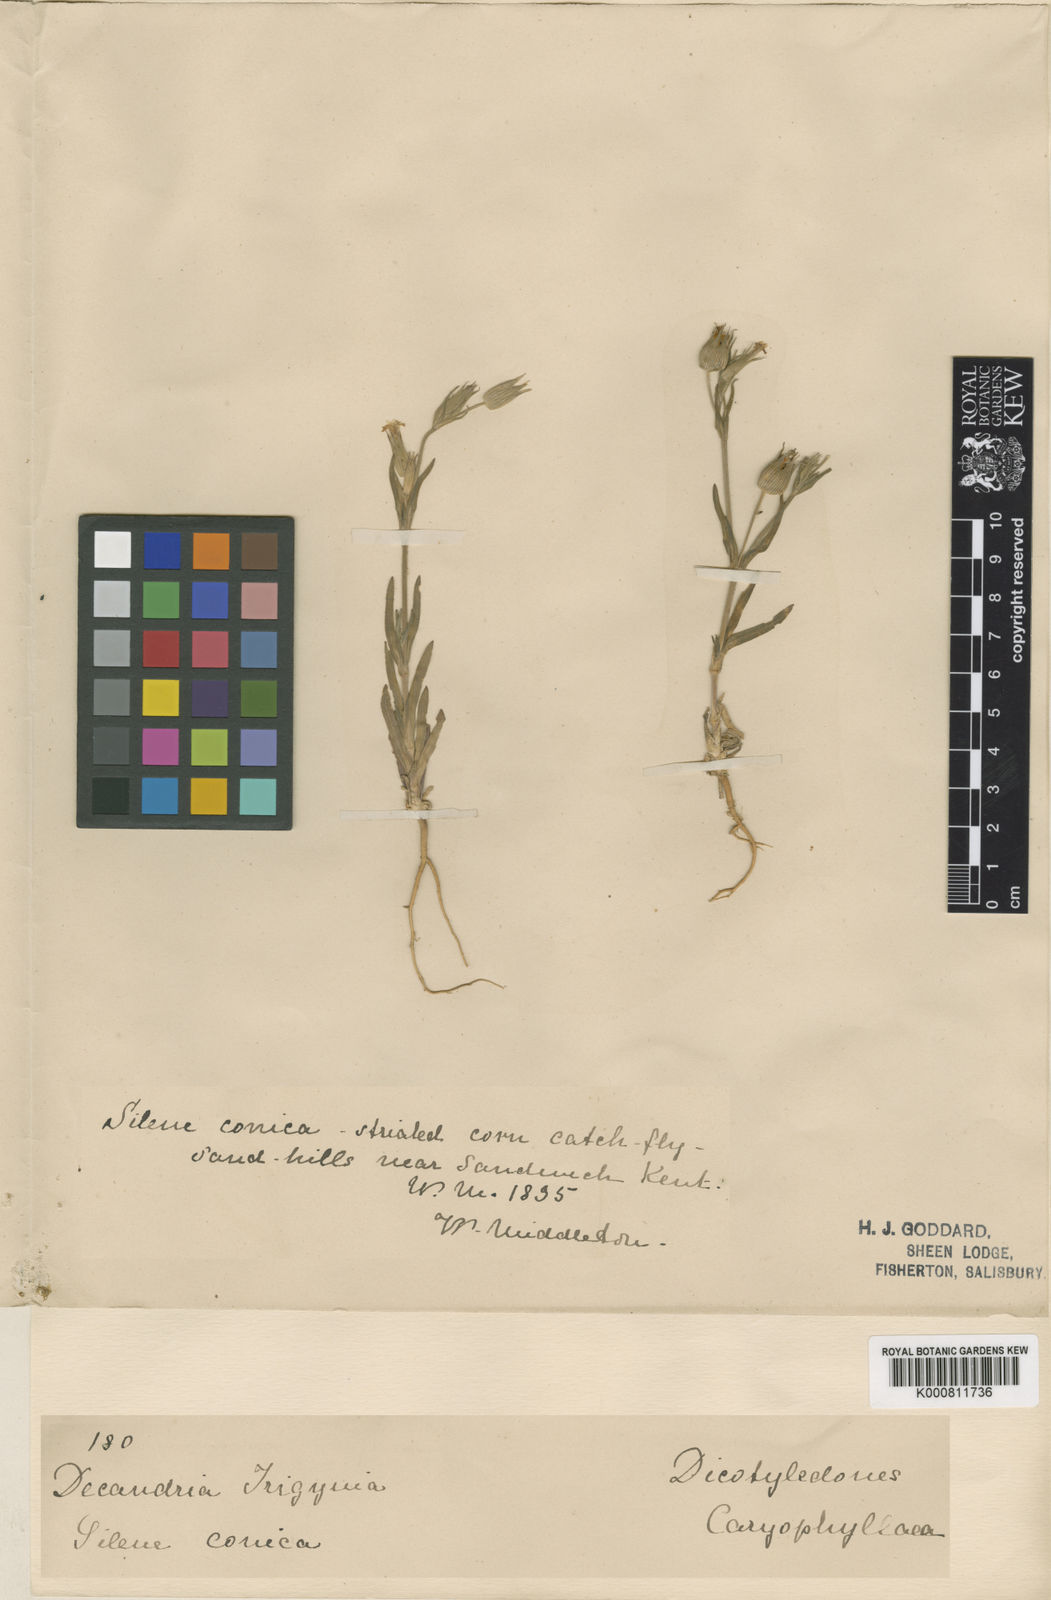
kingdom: Plantae
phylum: Tracheophyta
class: Magnoliopsida
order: Caryophyllales
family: Caryophyllaceae
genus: Silene
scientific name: Silene conica
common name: Sand catchfly
